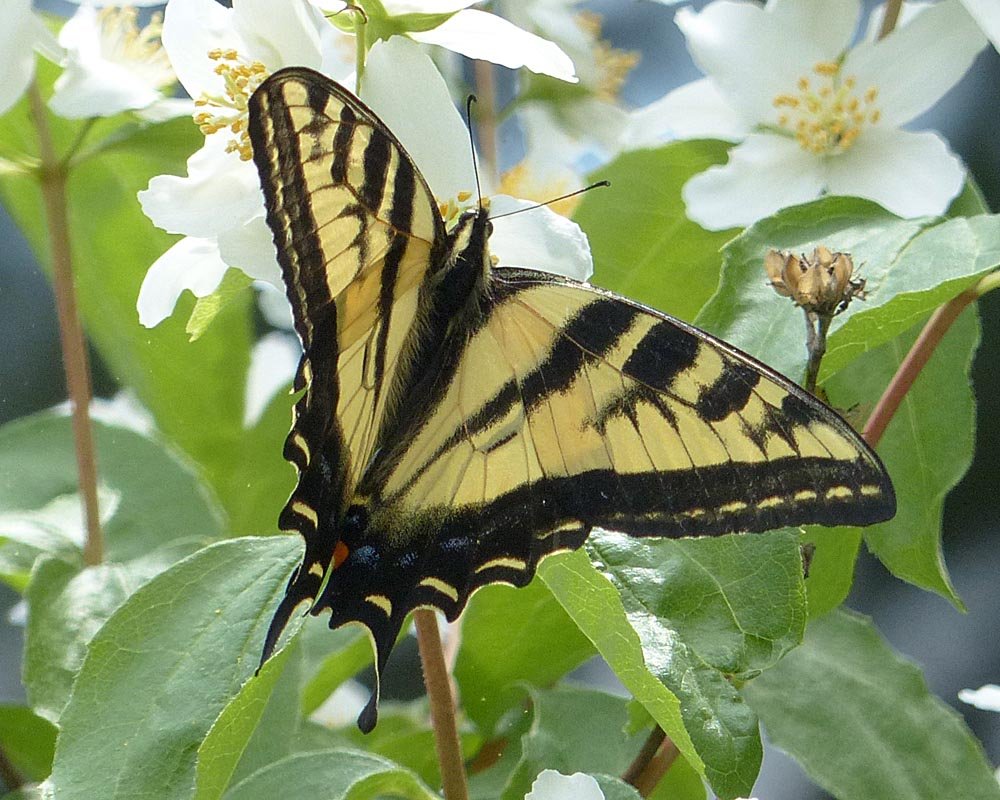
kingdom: Animalia
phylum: Arthropoda
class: Insecta
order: Lepidoptera
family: Papilionidae
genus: Pterourus
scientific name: Pterourus rutulus
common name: Western Tiger Swallowtail
